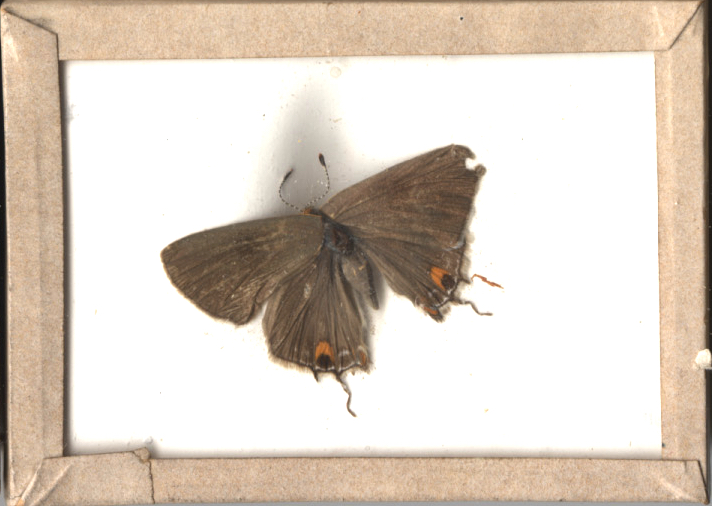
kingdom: Animalia
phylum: Arthropoda
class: Insecta
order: Lepidoptera
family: Lycaenidae
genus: Strymon
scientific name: Strymon melinus
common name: Gray Hairstreak
